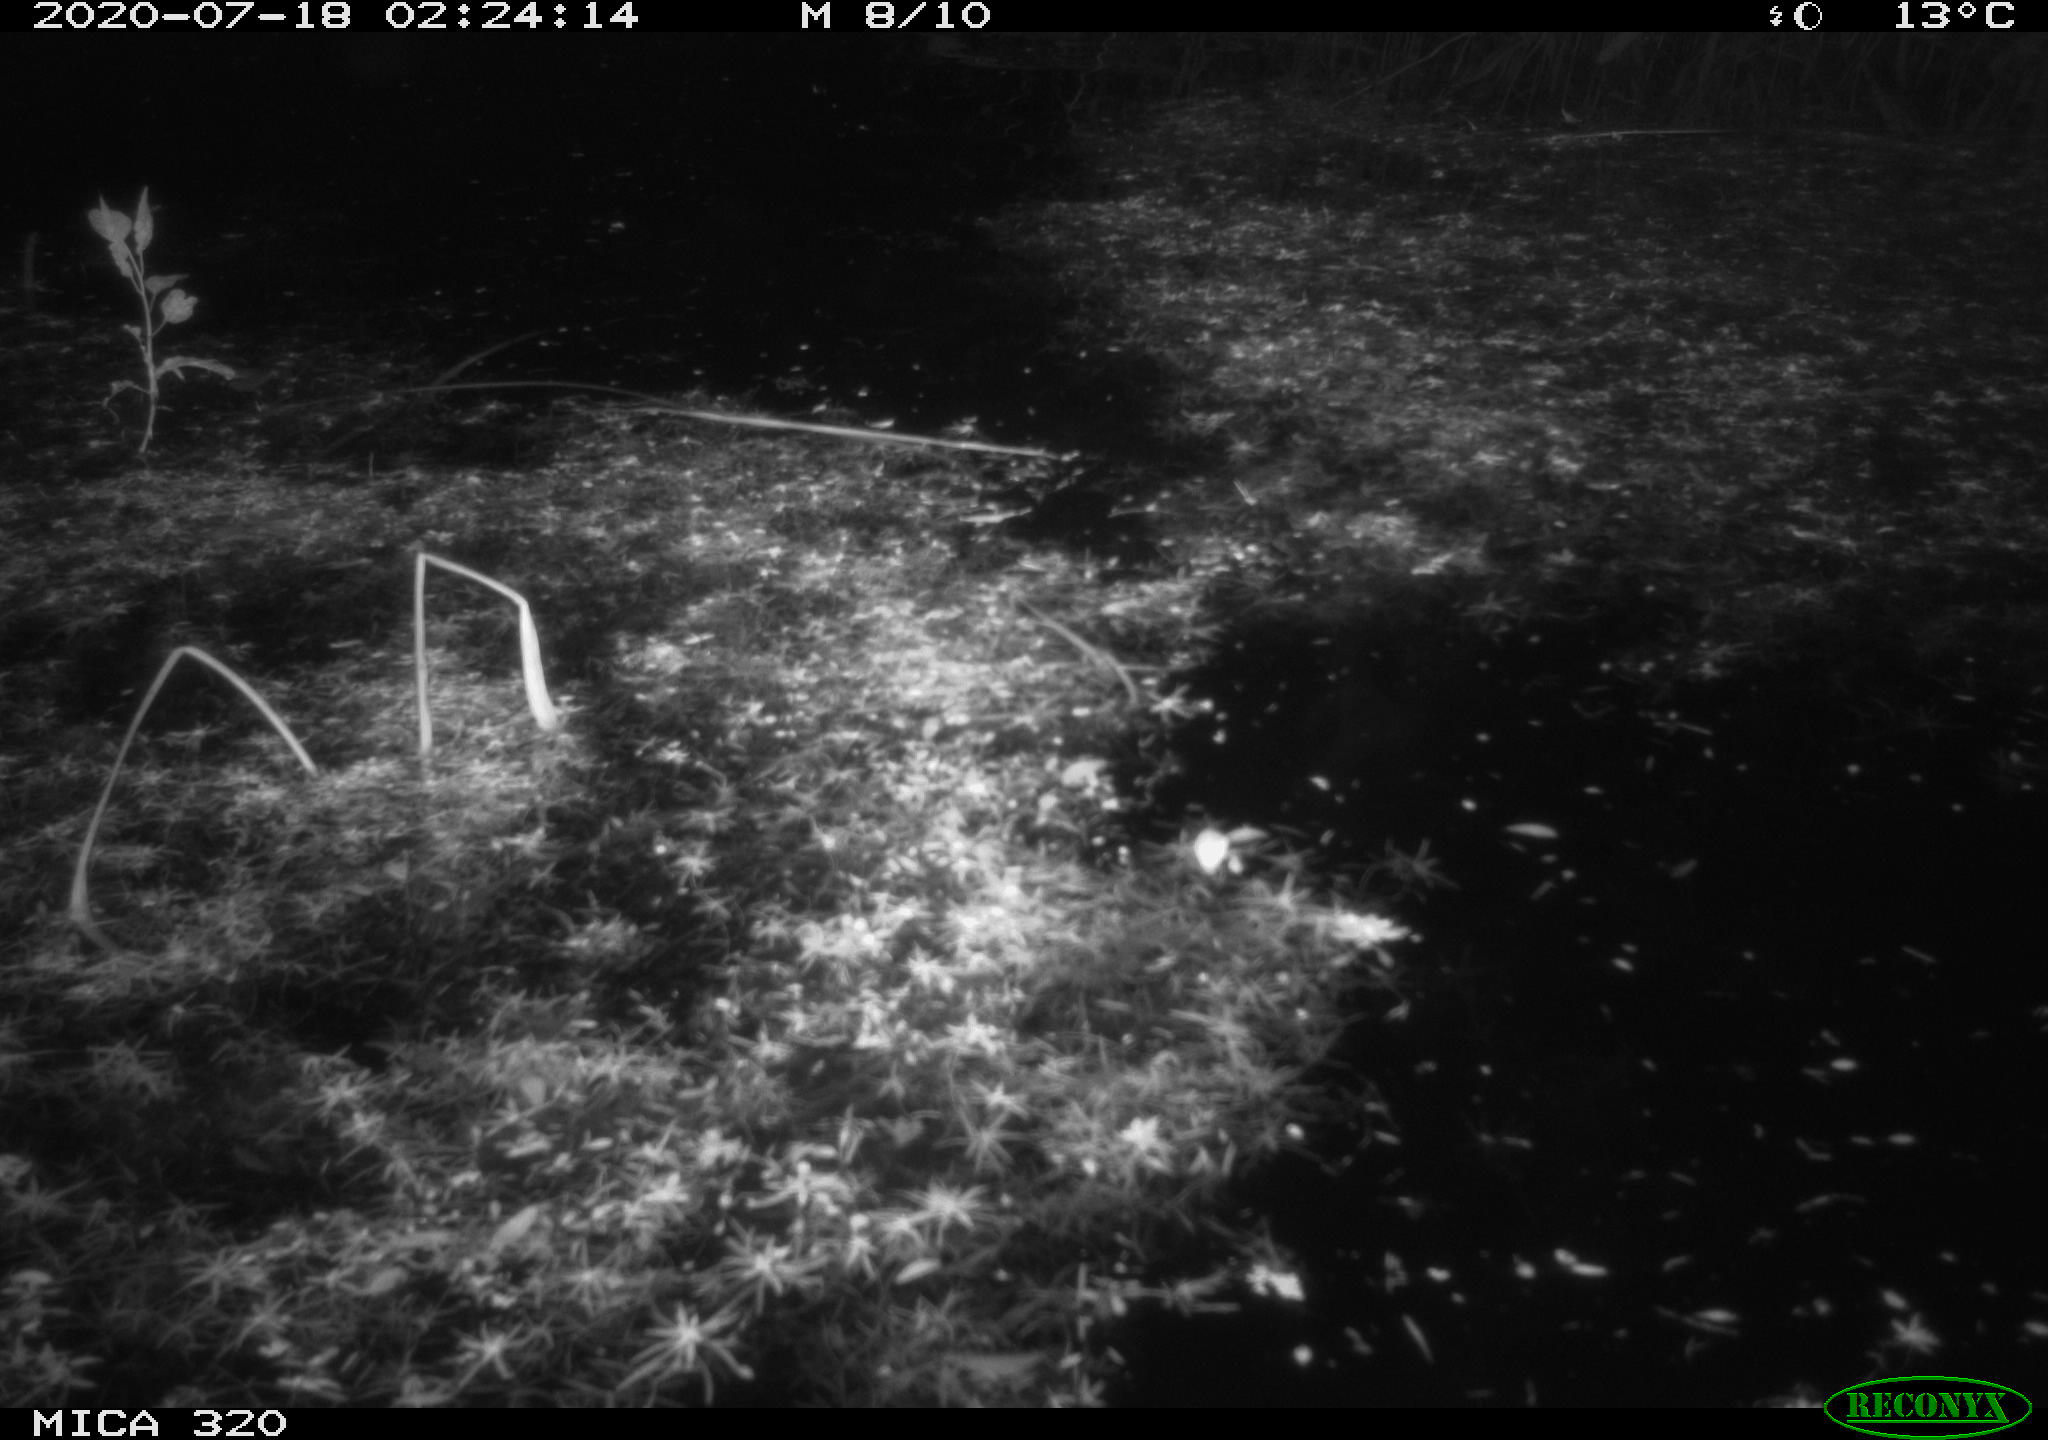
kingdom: Animalia
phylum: Chordata
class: Aves
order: Anseriformes
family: Anatidae
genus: Anas
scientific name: Anas platyrhynchos
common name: Mallard
